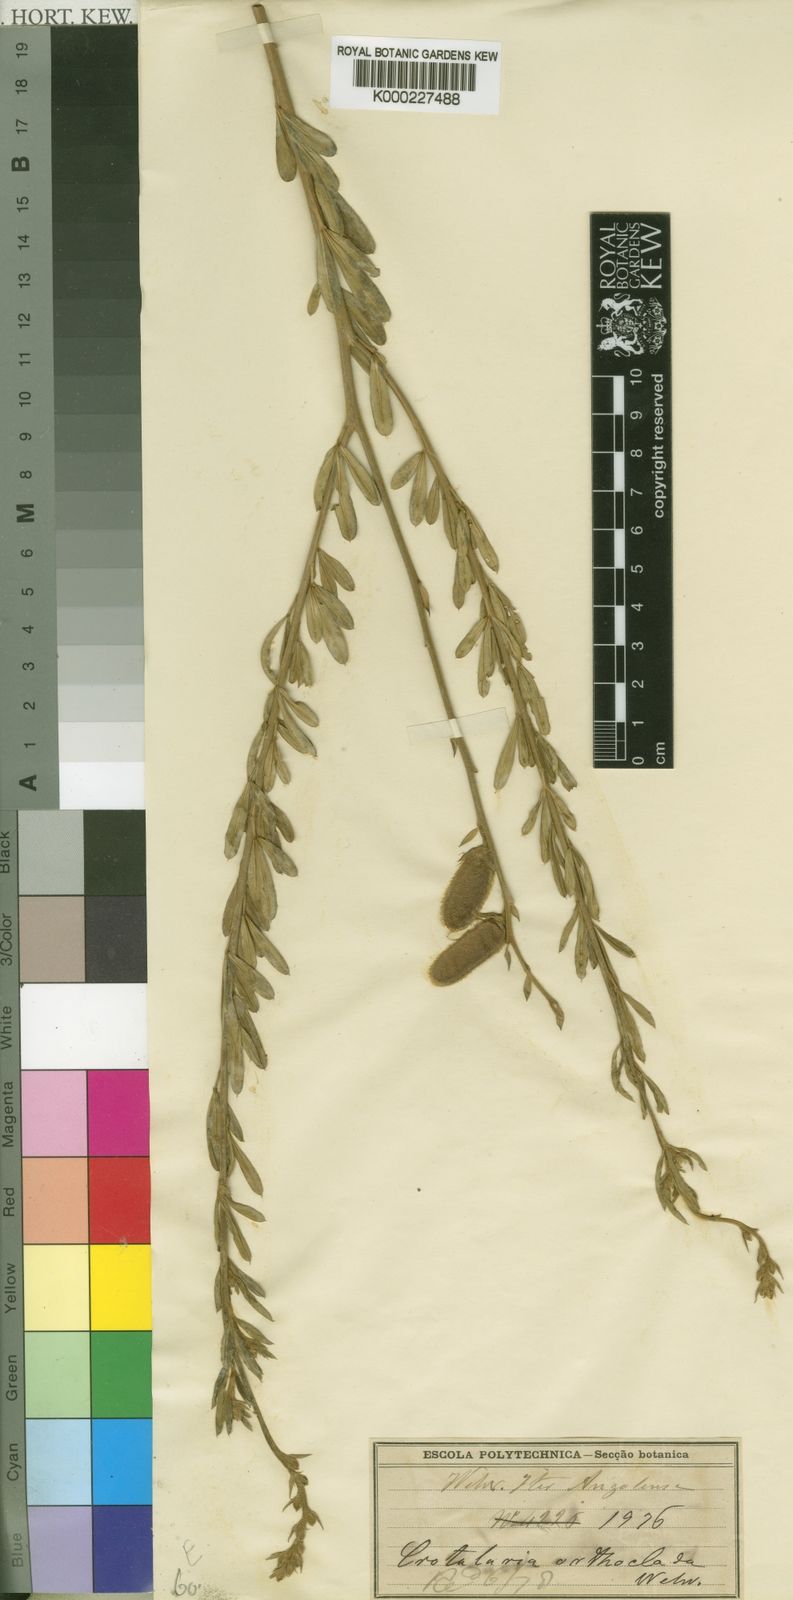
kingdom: Plantae
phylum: Tracheophyta
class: Magnoliopsida
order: Fabales
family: Fabaceae
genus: Crotalaria
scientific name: Crotalaria orthoclada
